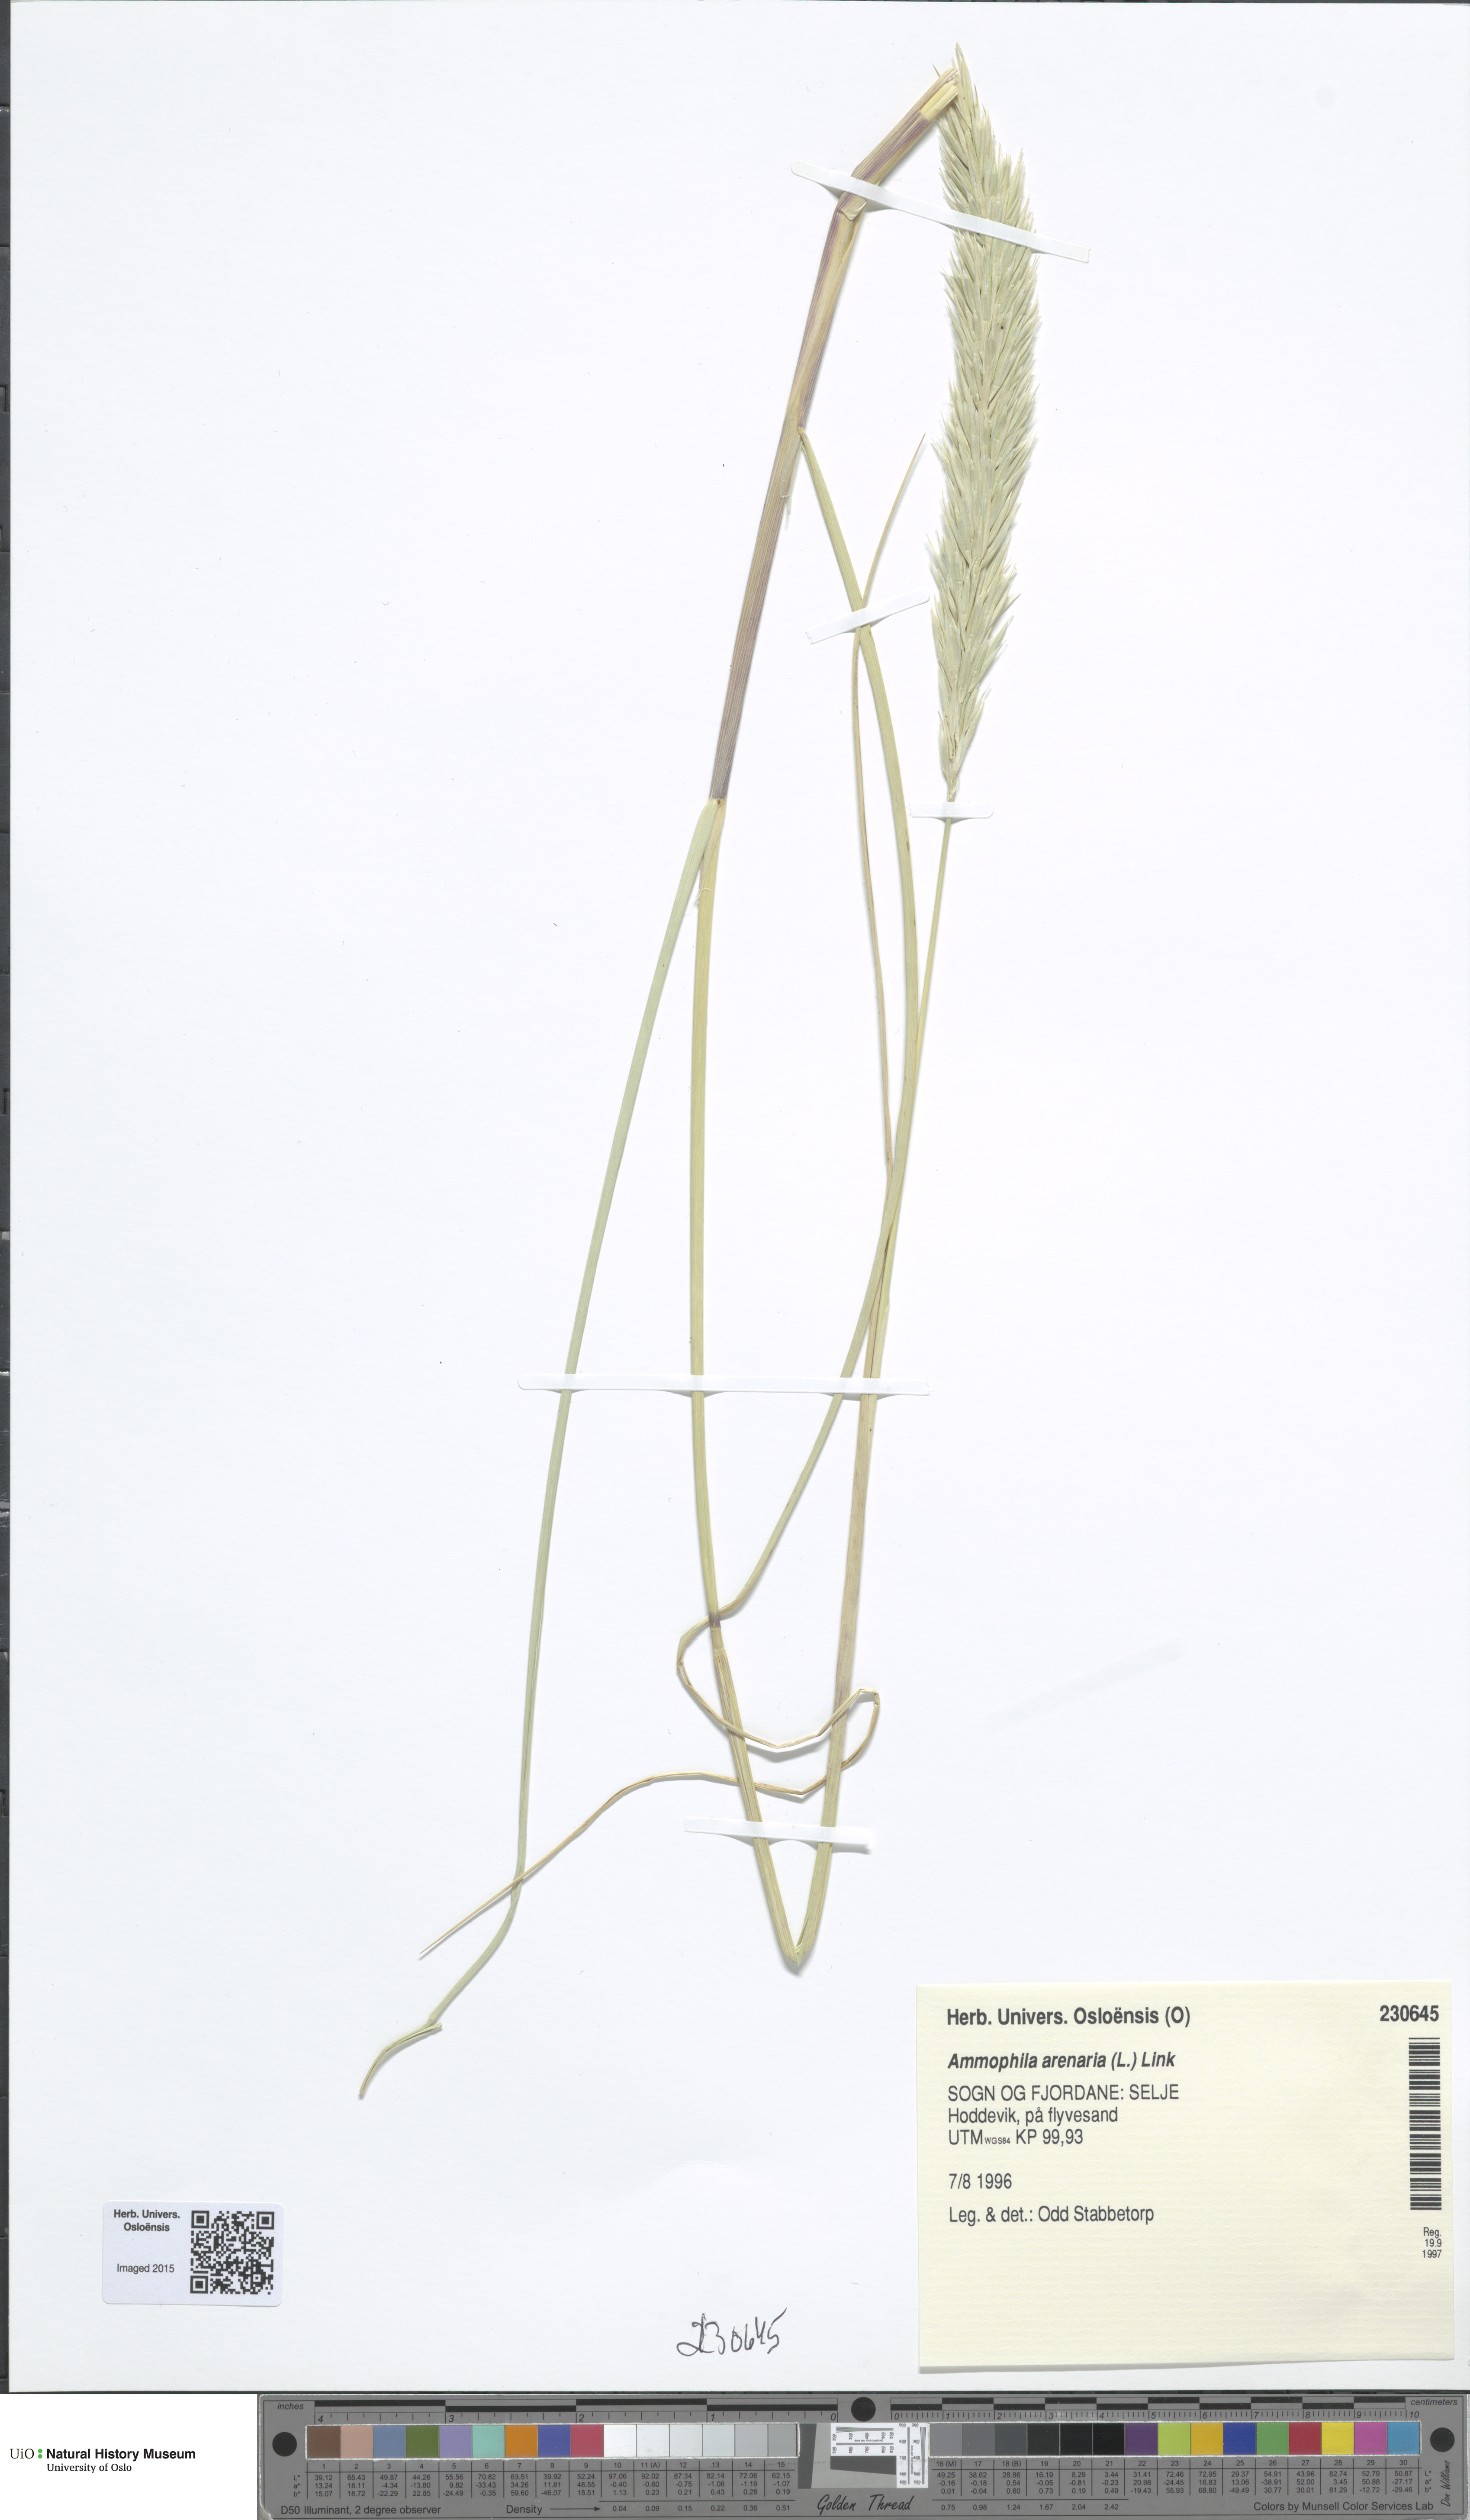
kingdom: Plantae
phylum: Tracheophyta
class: Liliopsida
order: Poales
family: Poaceae
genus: Calamagrostis
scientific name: Calamagrostis arenaria
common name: European beachgrass
